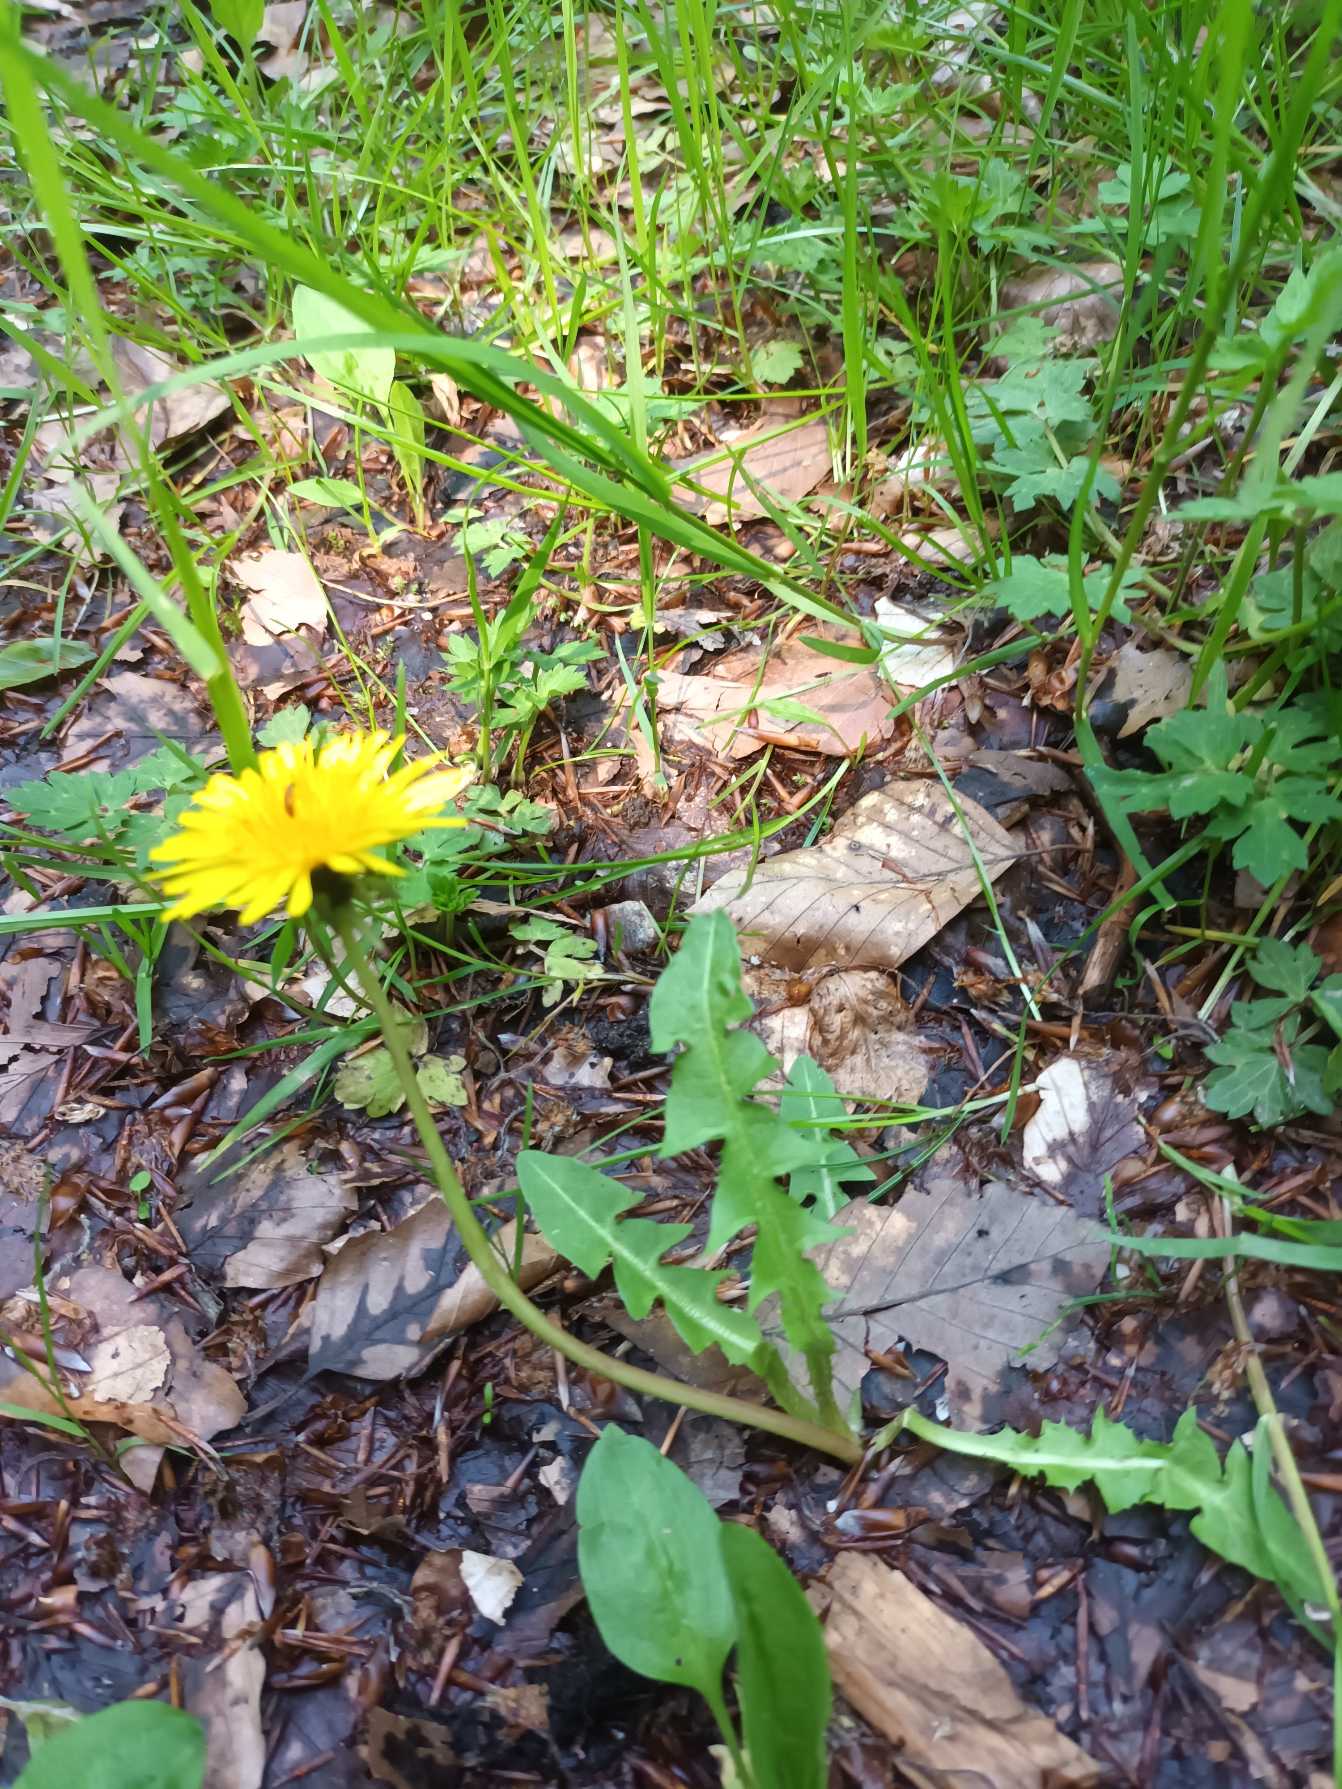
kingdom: Plantae
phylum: Tracheophyta
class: Magnoliopsida
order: Asterales
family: Asteraceae
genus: Taraxacum
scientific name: Taraxacum
